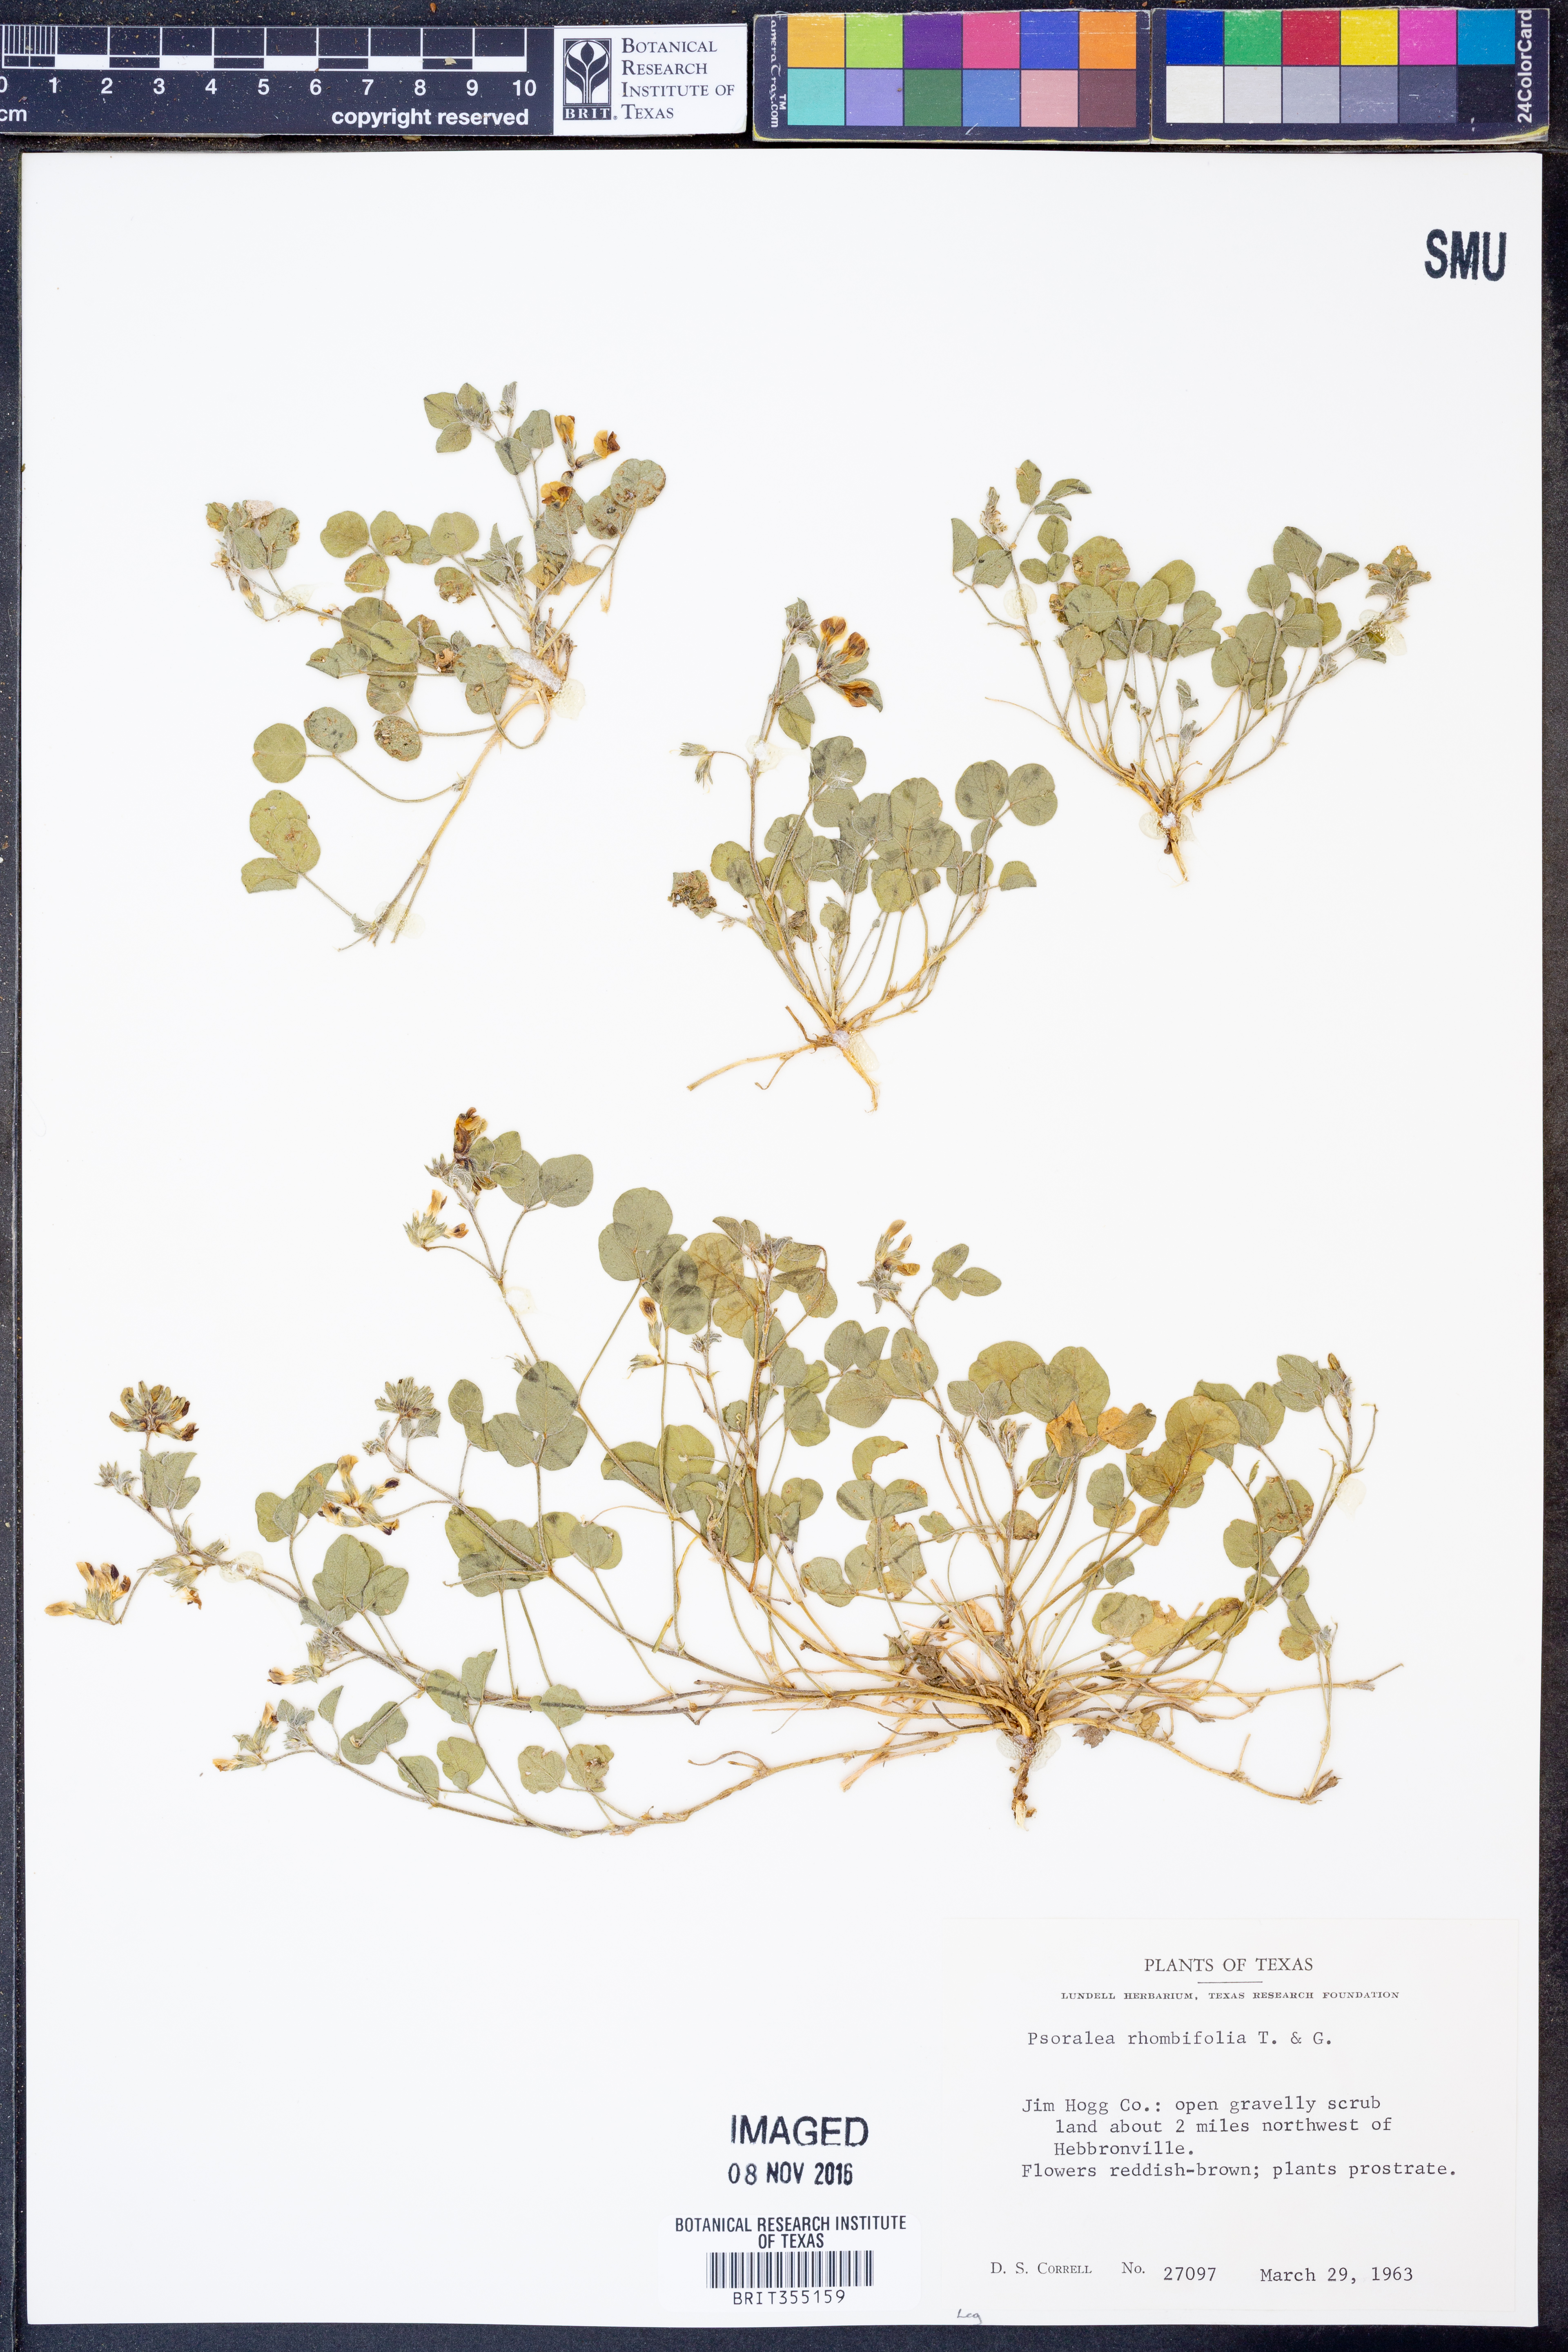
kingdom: Plantae
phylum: Tracheophyta
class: Magnoliopsida
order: Fabales
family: Fabaceae
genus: Pediomelum
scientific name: Pediomelum rhombifolium
